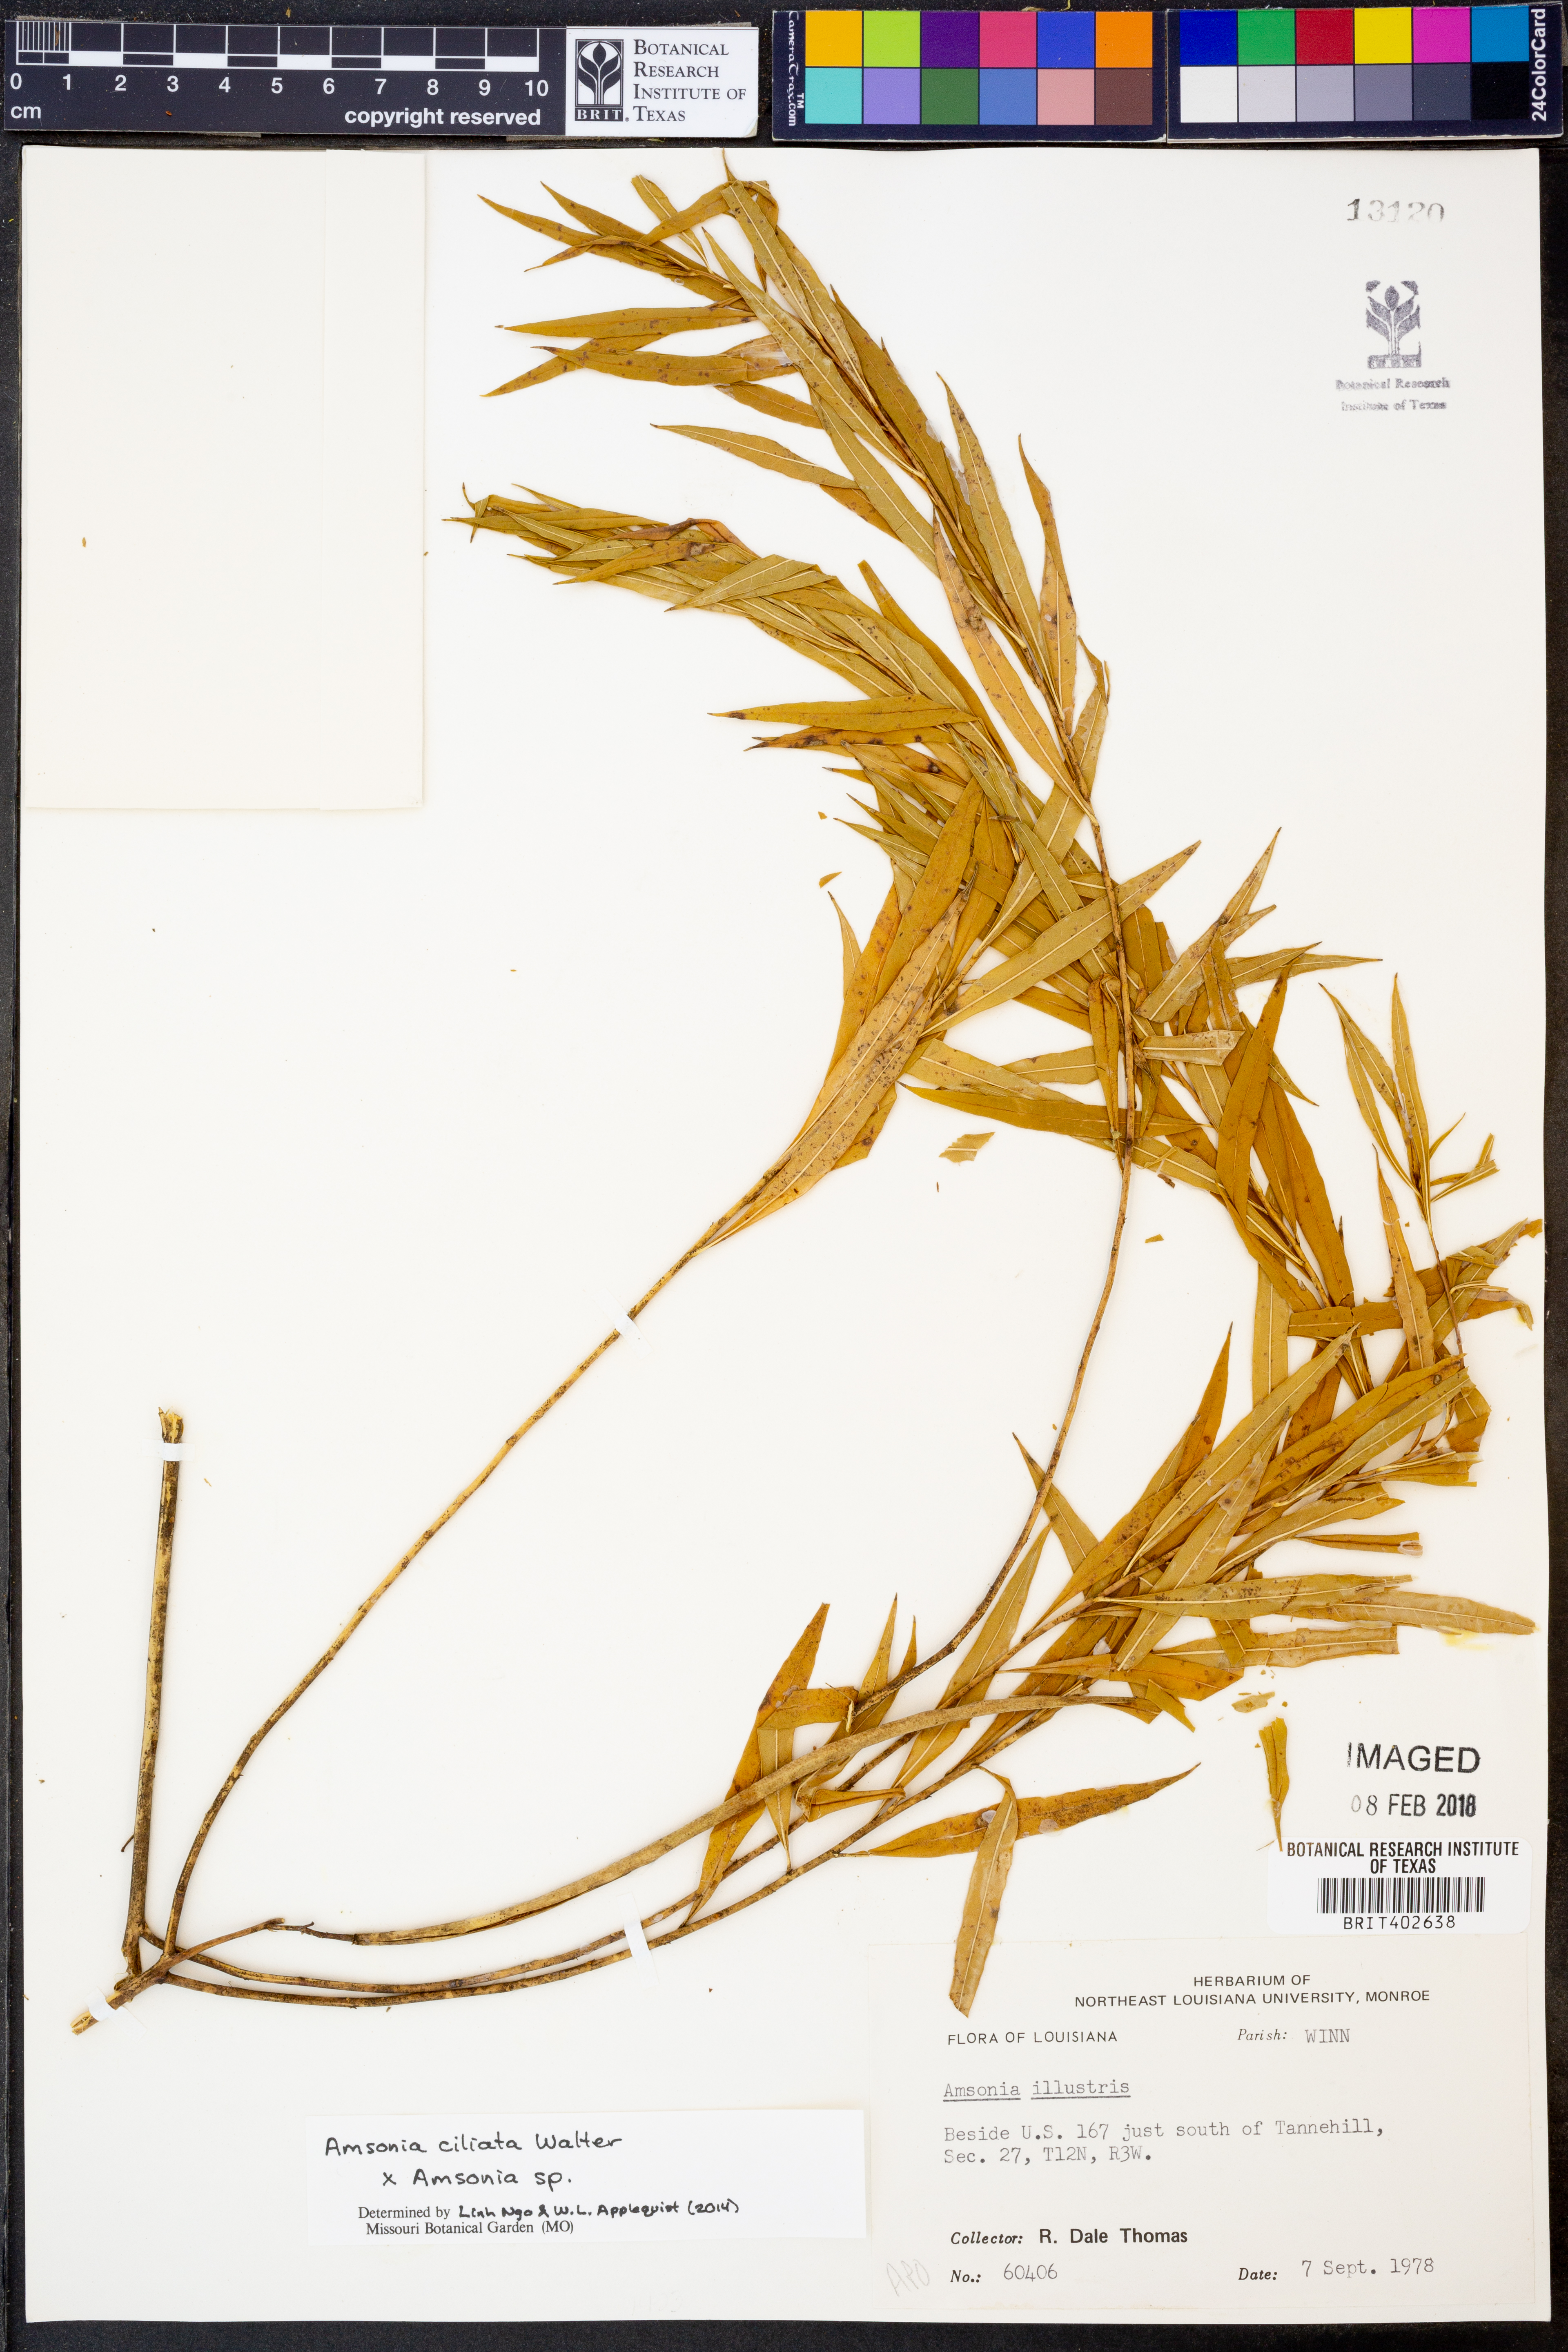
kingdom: Plantae
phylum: Tracheophyta
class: Magnoliopsida
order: Gentianales
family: Apocynaceae
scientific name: Apocynaceae
